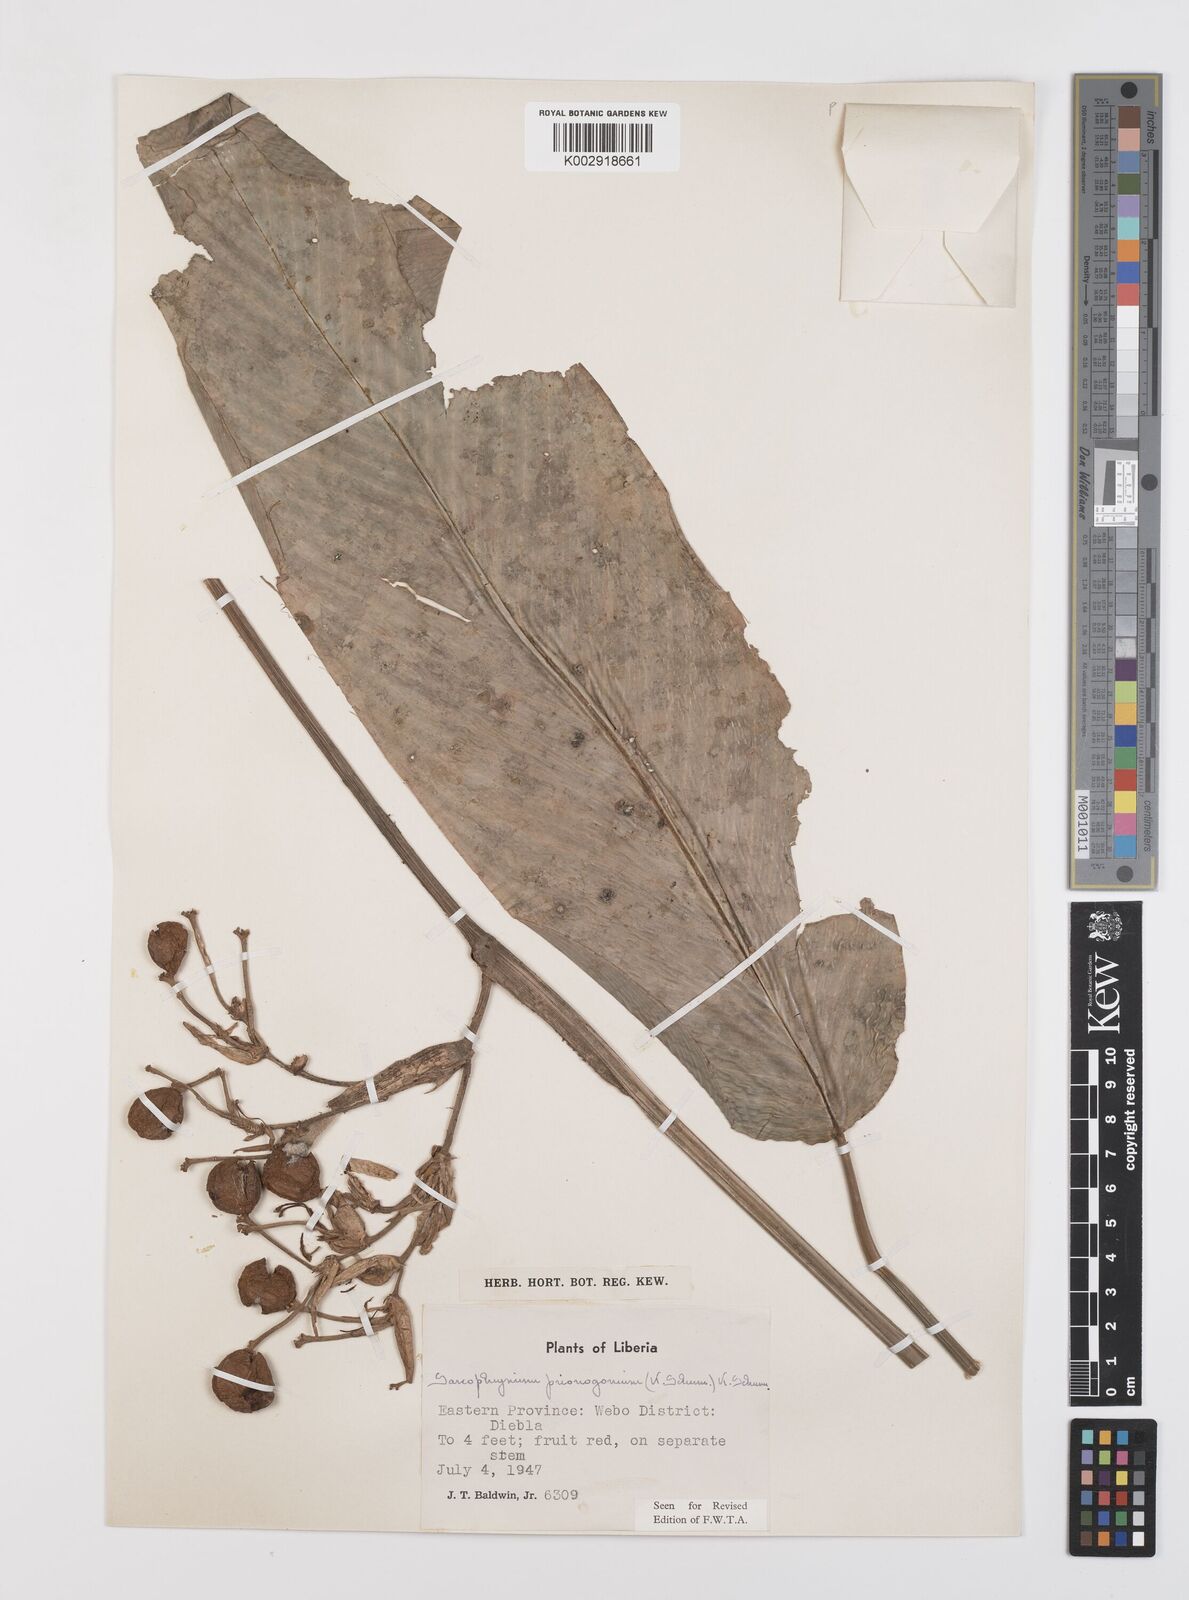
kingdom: Plantae
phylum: Tracheophyta
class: Liliopsida
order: Zingiberales
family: Marantaceae
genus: Sarcophrynium
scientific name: Sarcophrynium prionogonium
